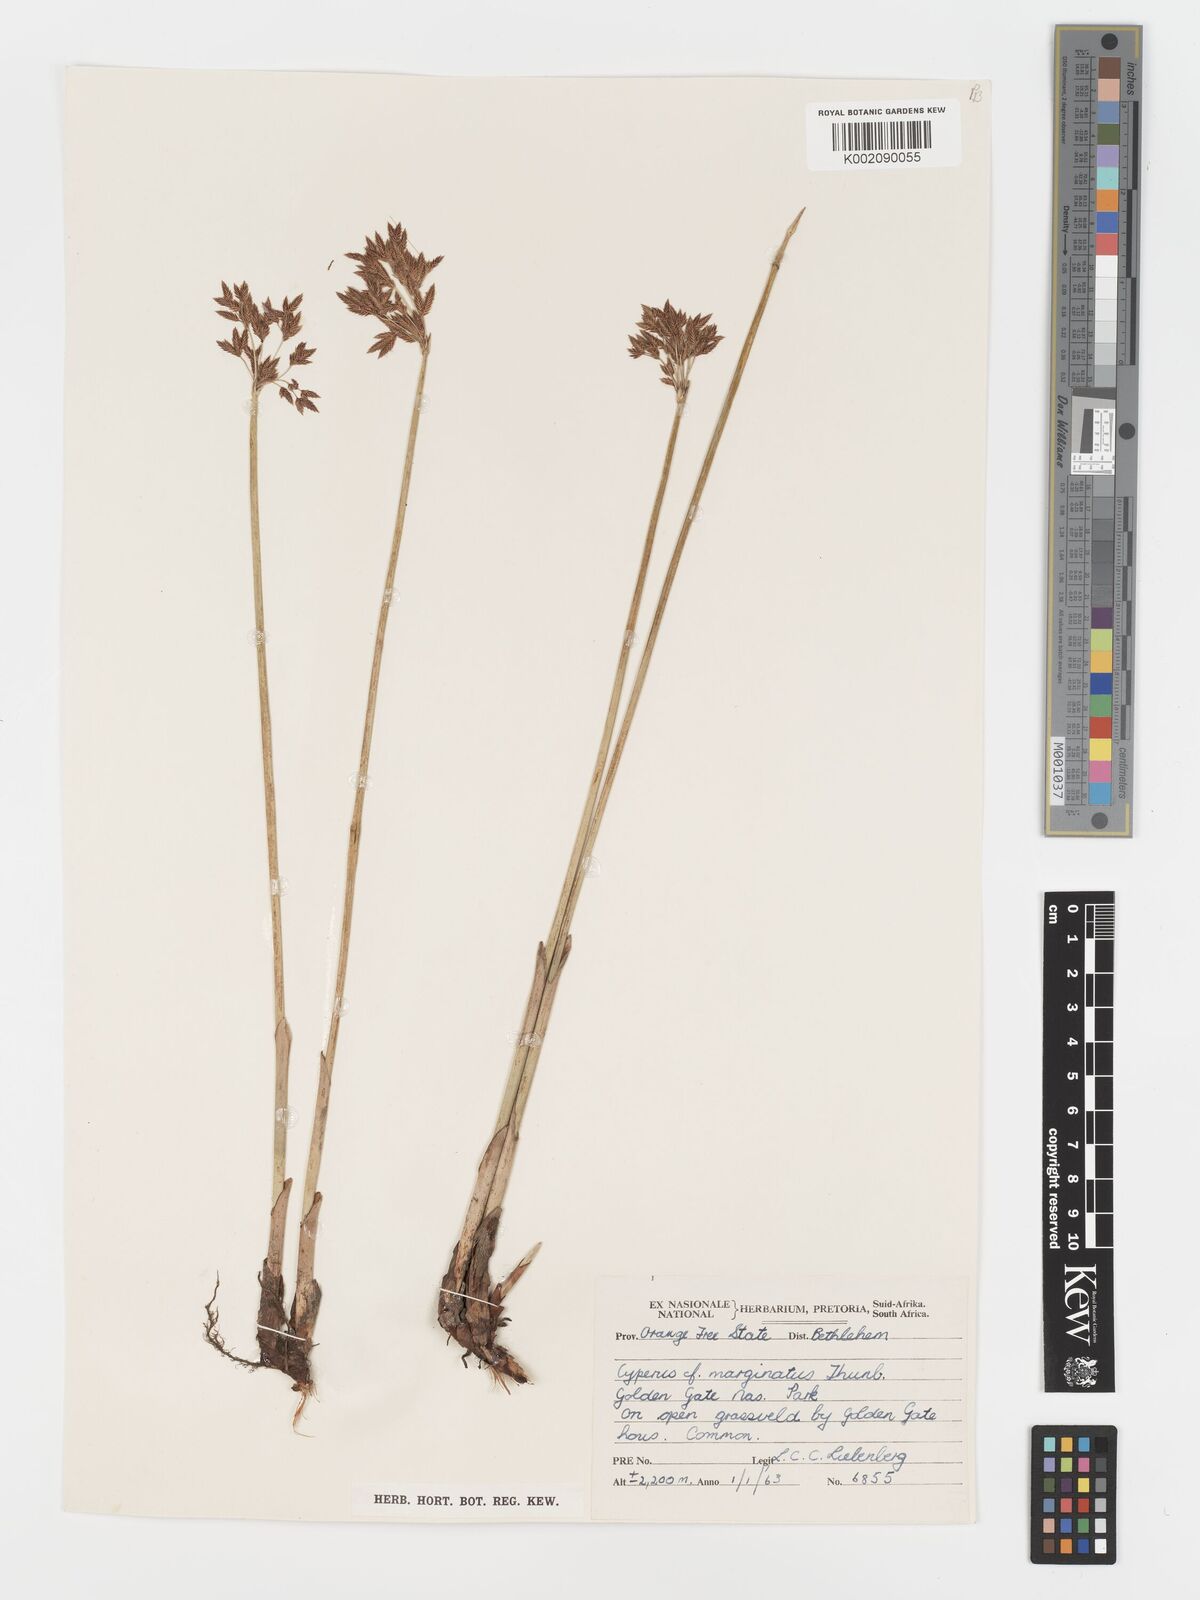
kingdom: Plantae
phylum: Tracheophyta
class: Liliopsida
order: Poales
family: Cyperaceae
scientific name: Cyperaceae
